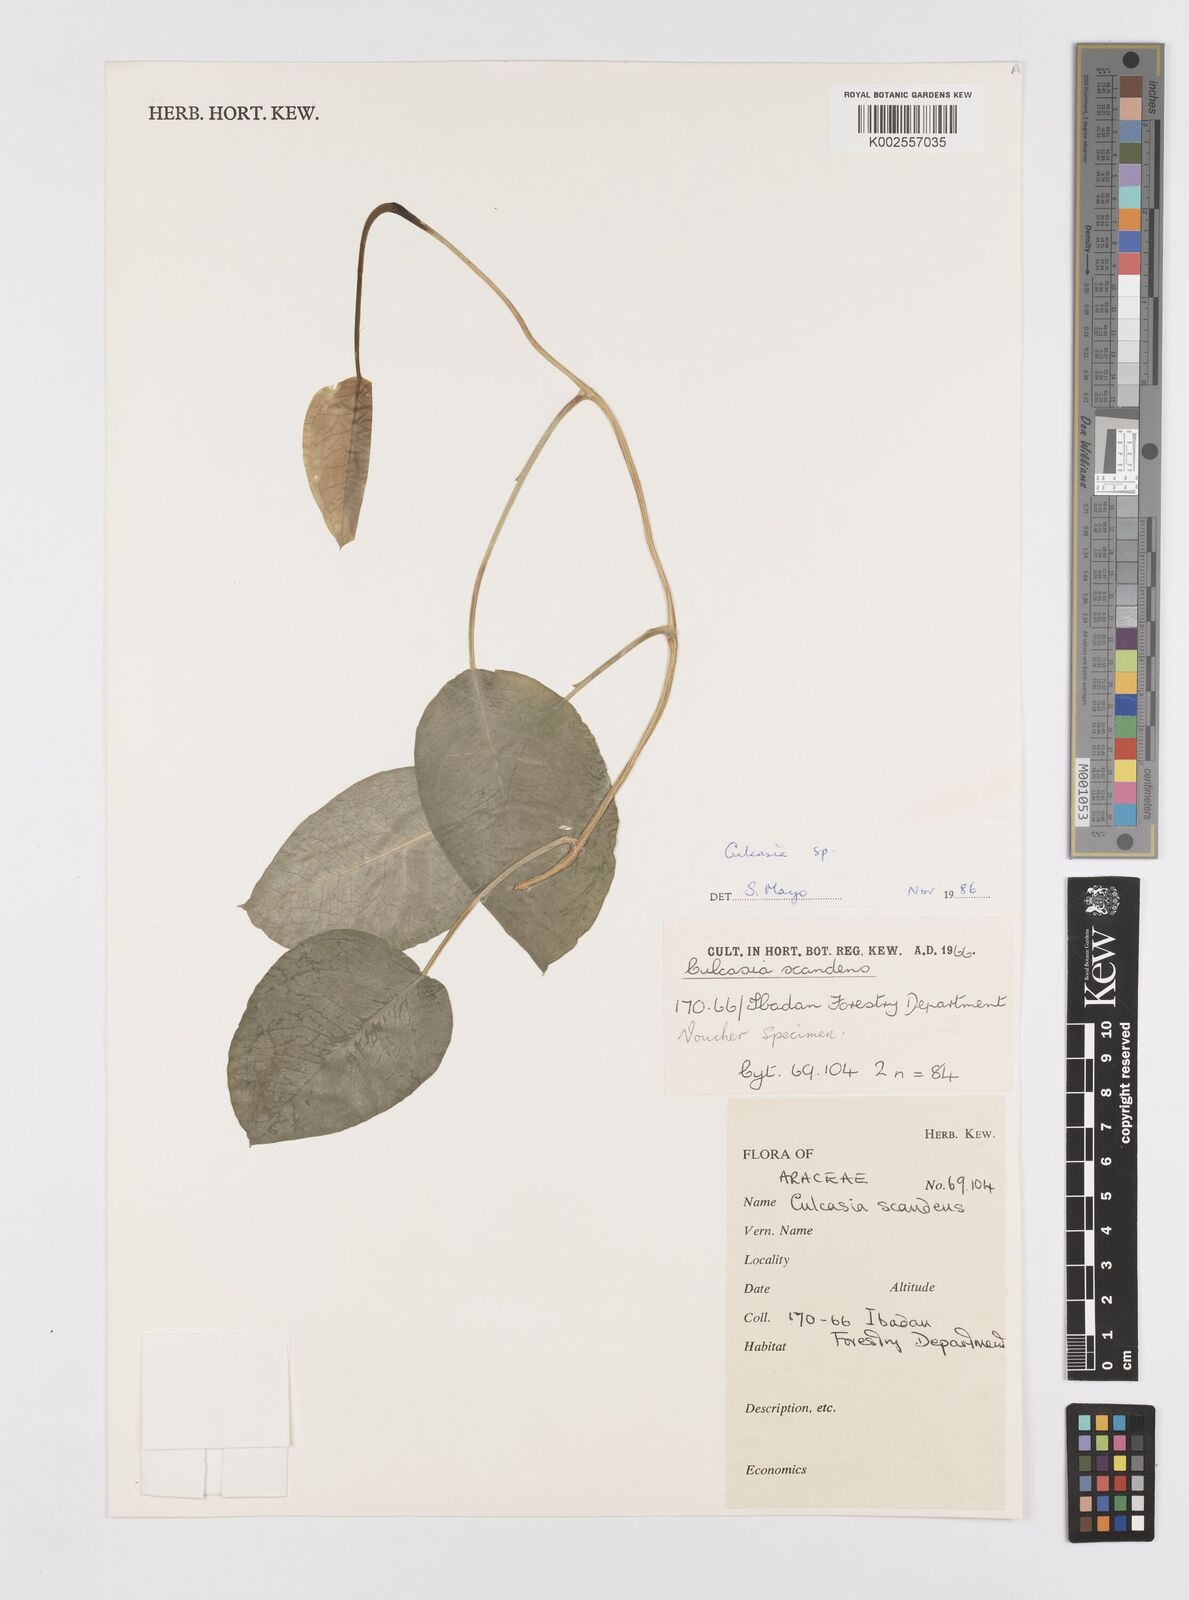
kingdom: Plantae
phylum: Tracheophyta
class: Liliopsida
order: Alismatales
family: Araceae
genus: Culcasia
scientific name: Culcasia
